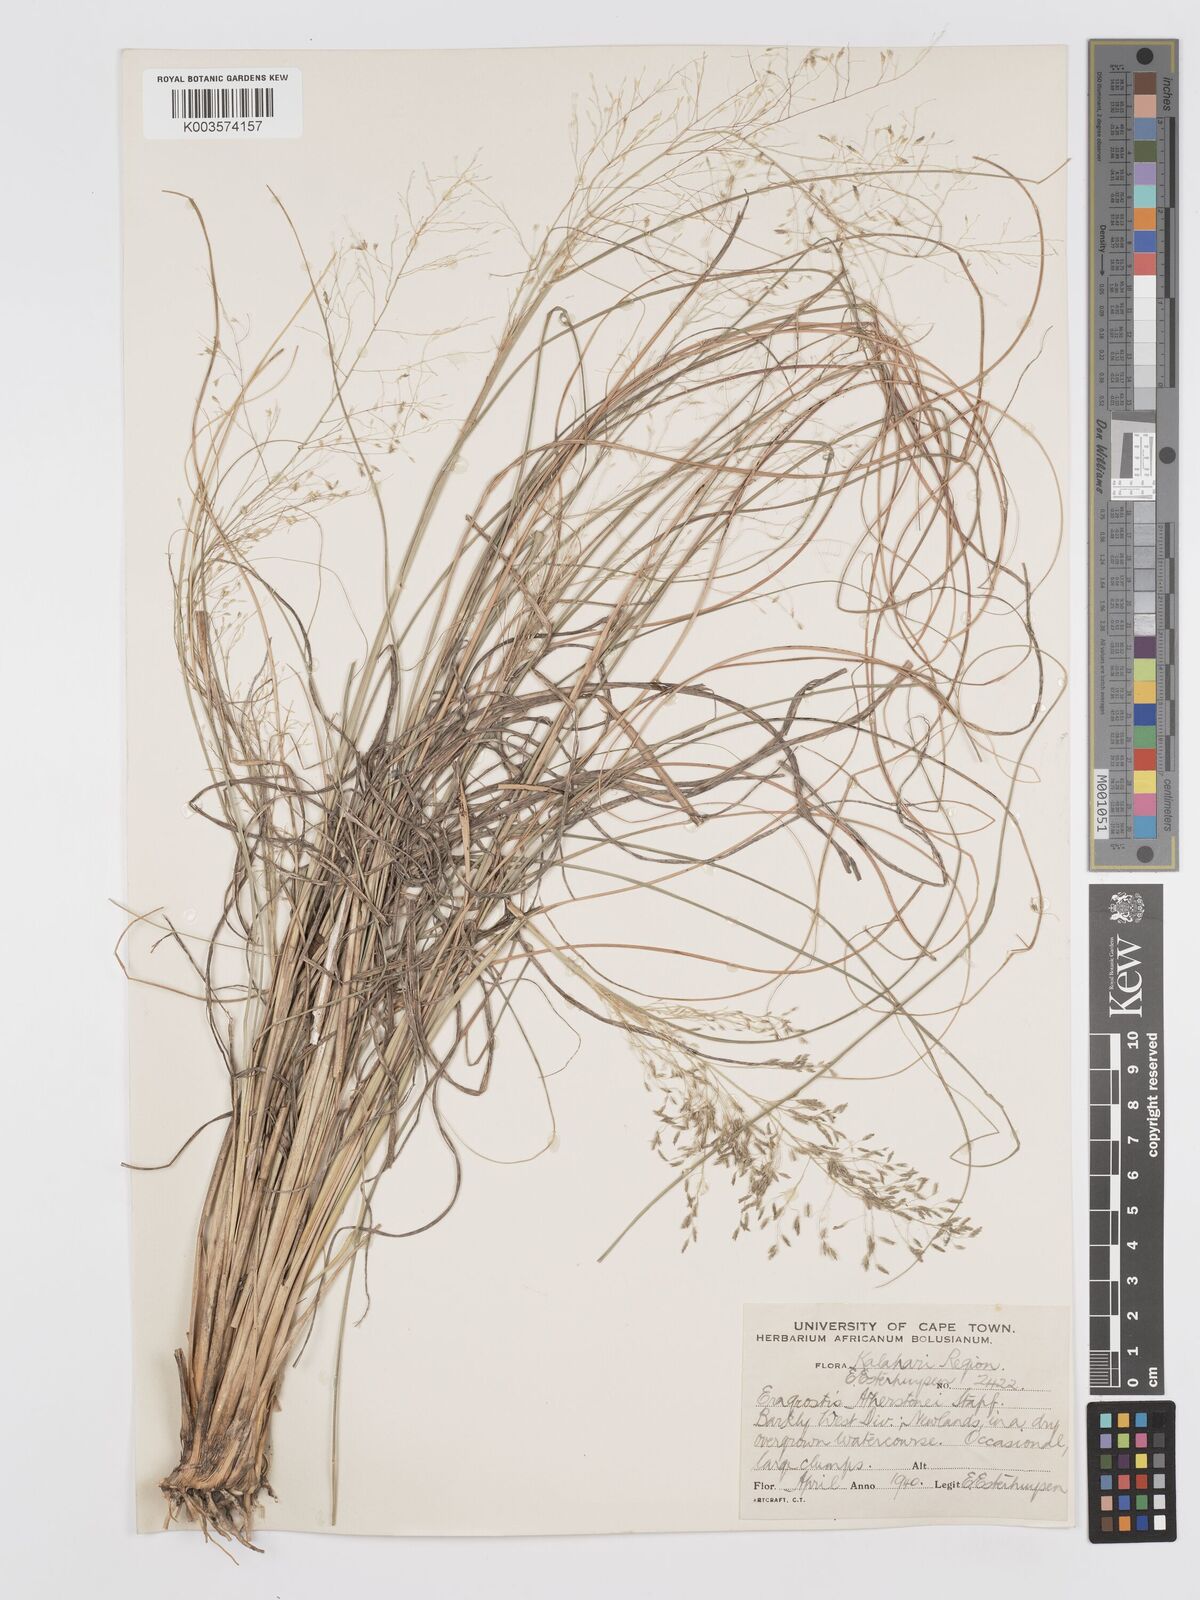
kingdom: Plantae
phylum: Tracheophyta
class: Liliopsida
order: Poales
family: Poaceae
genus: Eragrostis
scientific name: Eragrostis cylindriflora
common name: Cylinderflower lovegrass
